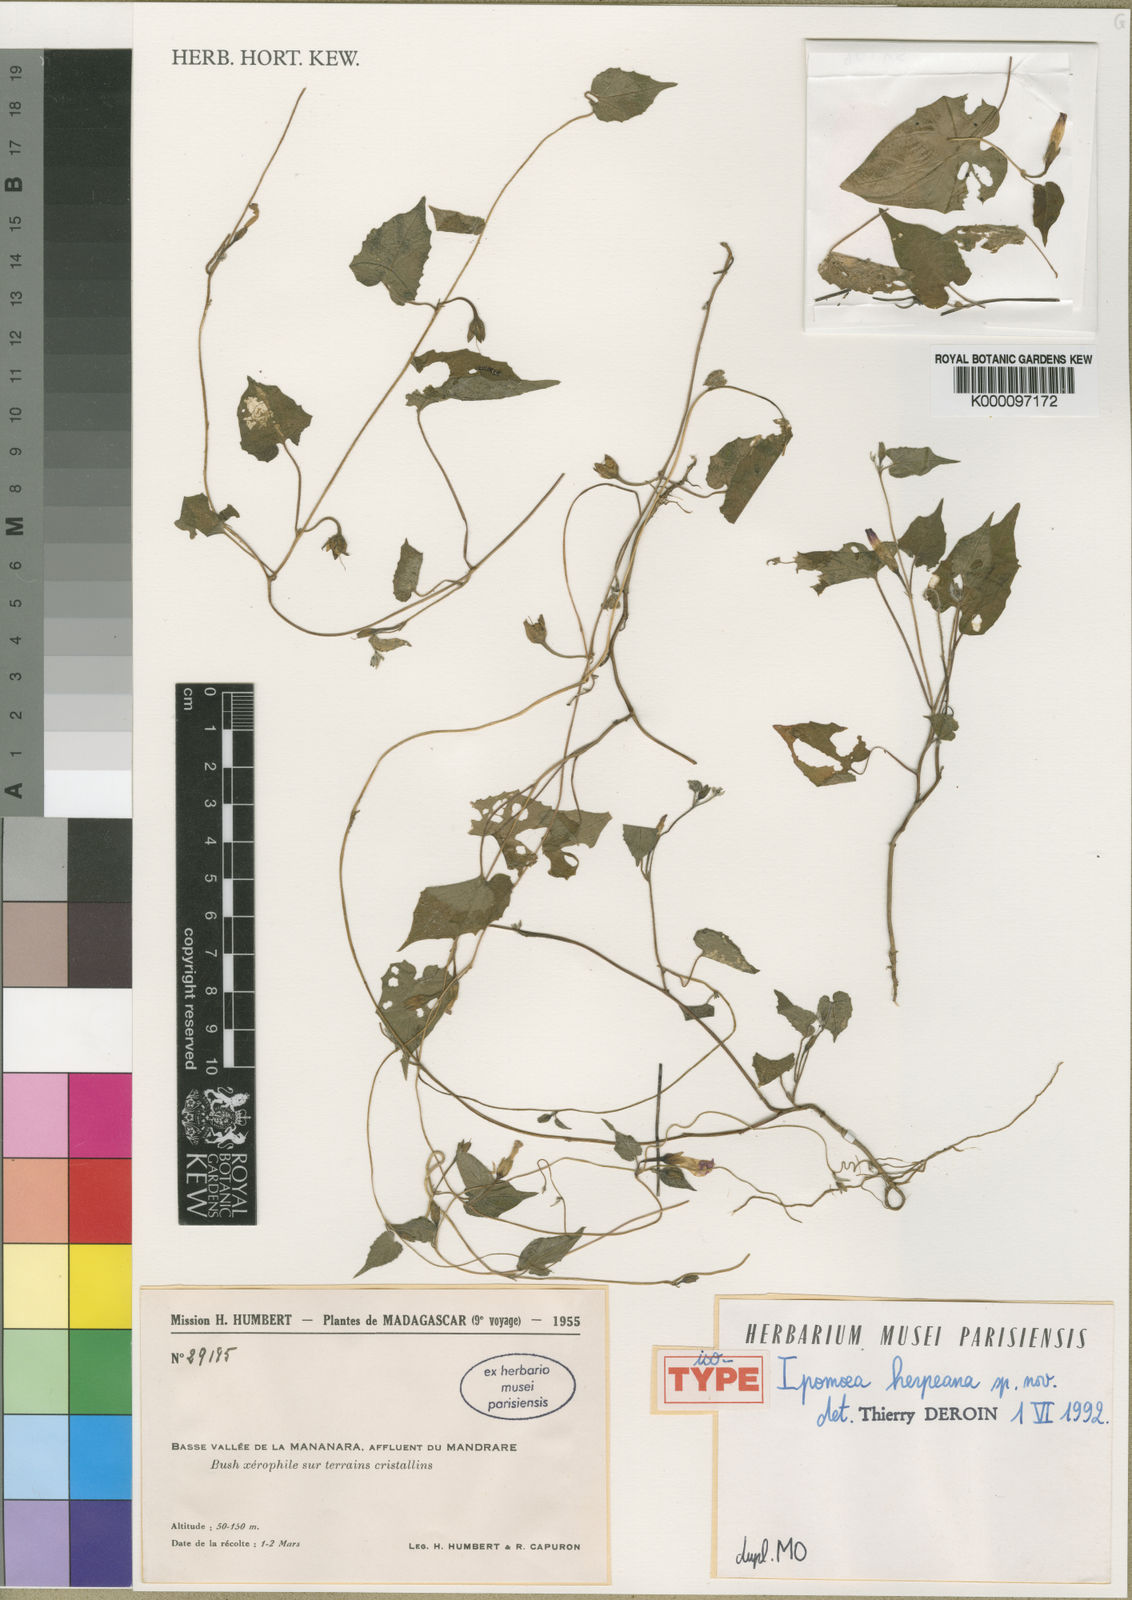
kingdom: Plantae
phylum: Tracheophyta
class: Magnoliopsida
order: Solanales
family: Convolvulaceae
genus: Ipomoea
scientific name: Ipomoea herpeana
